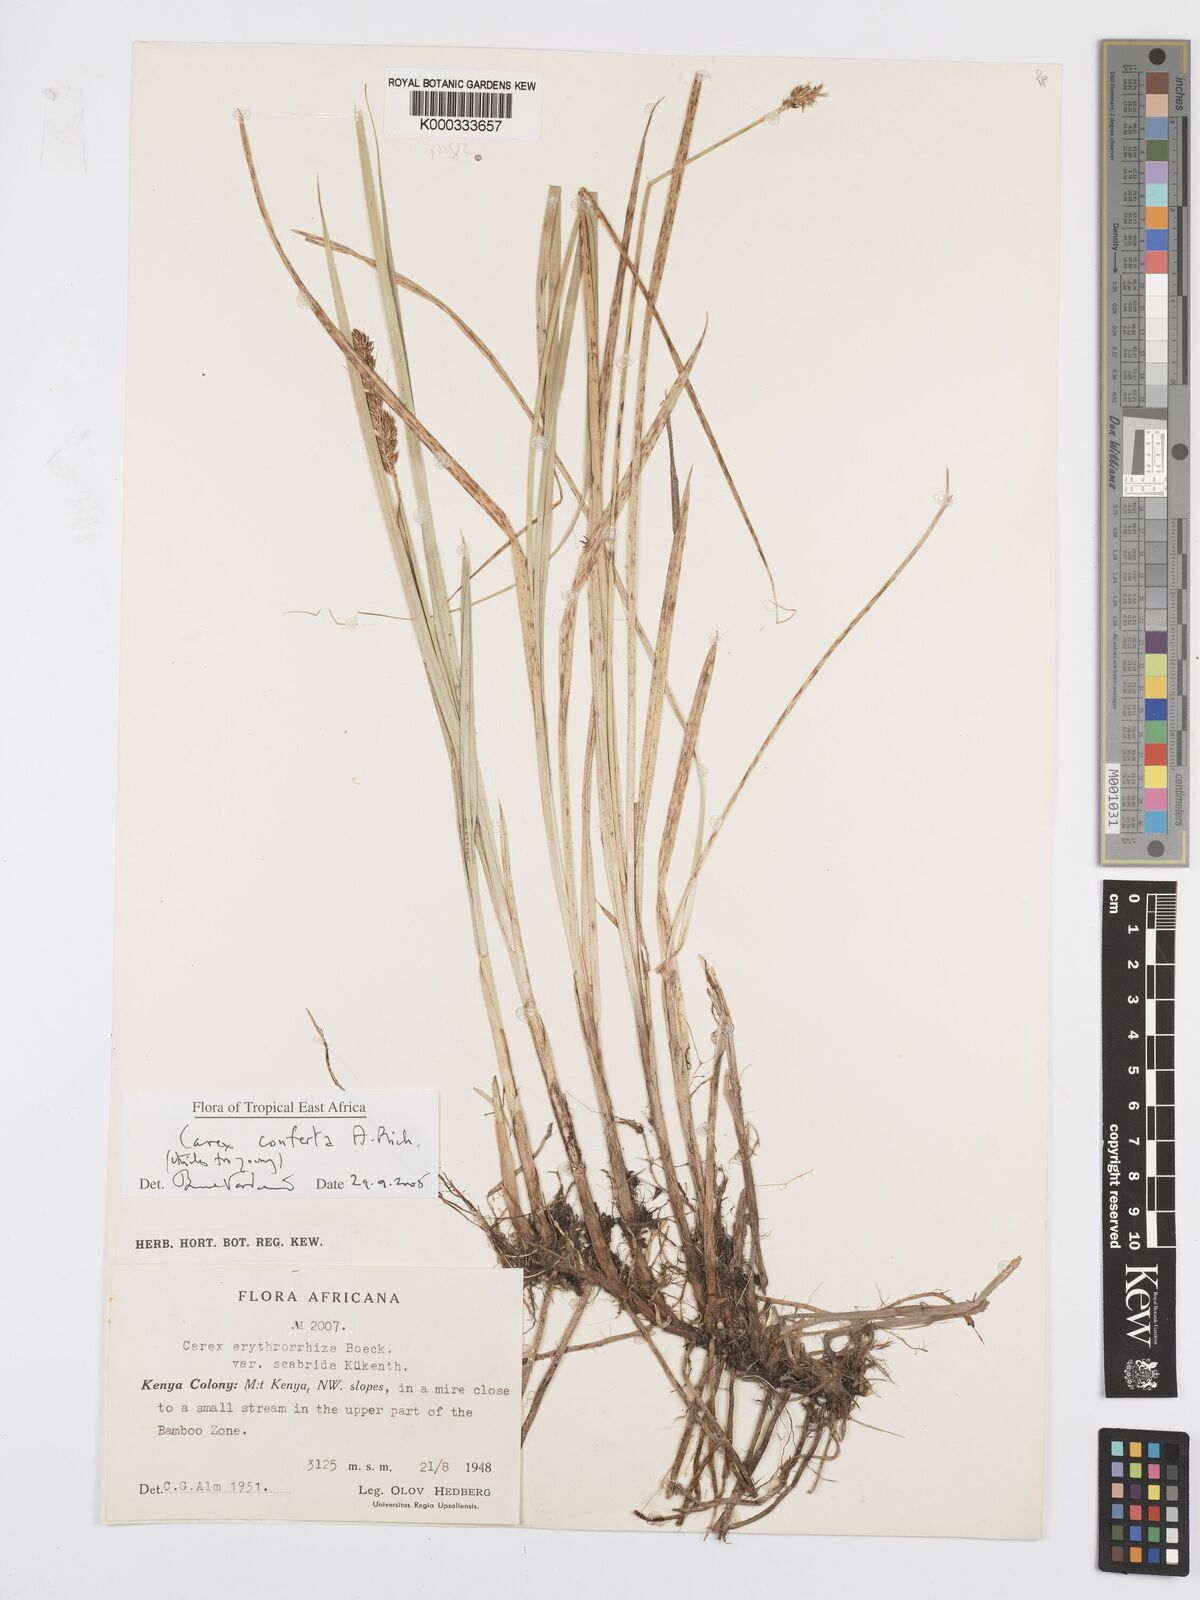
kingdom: Plantae
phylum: Tracheophyta
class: Liliopsida
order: Poales
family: Cyperaceae
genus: Carex
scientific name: Carex conferta
